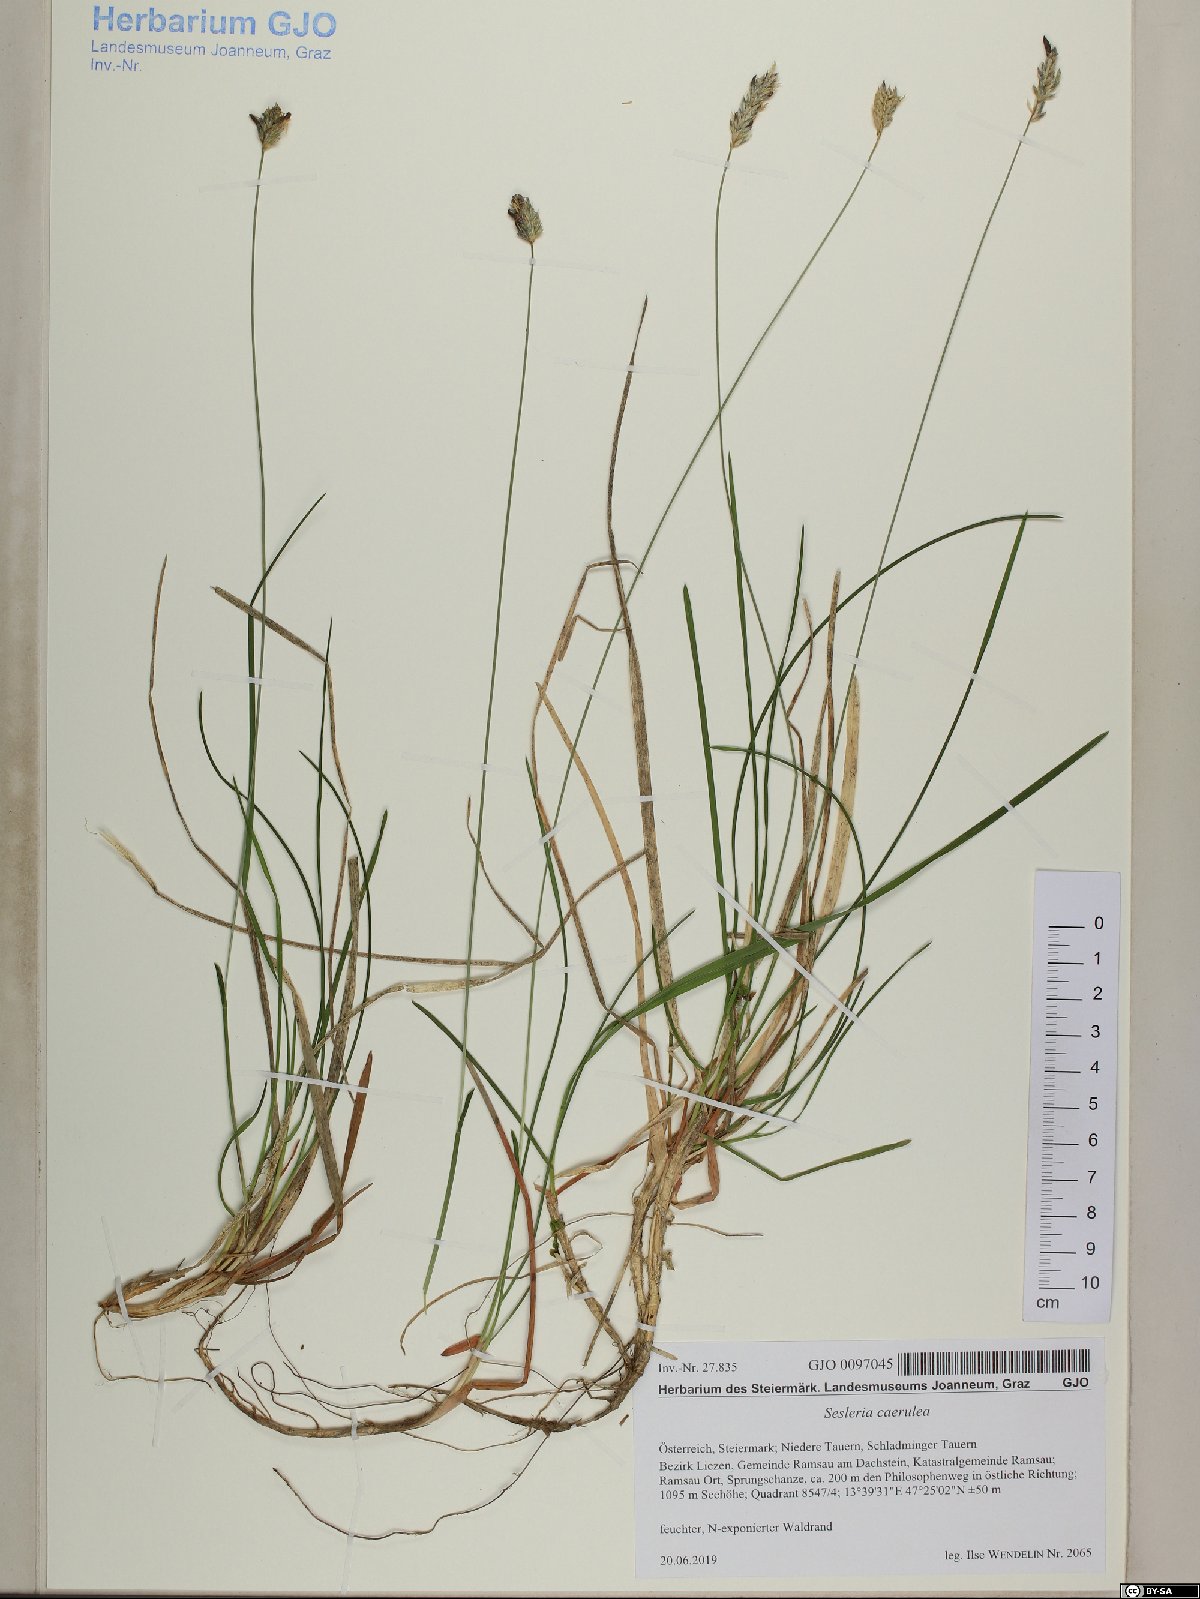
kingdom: Plantae
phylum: Tracheophyta
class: Liliopsida
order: Poales
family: Poaceae
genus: Sesleria
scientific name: Sesleria caerulea
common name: Blue moor-grass
